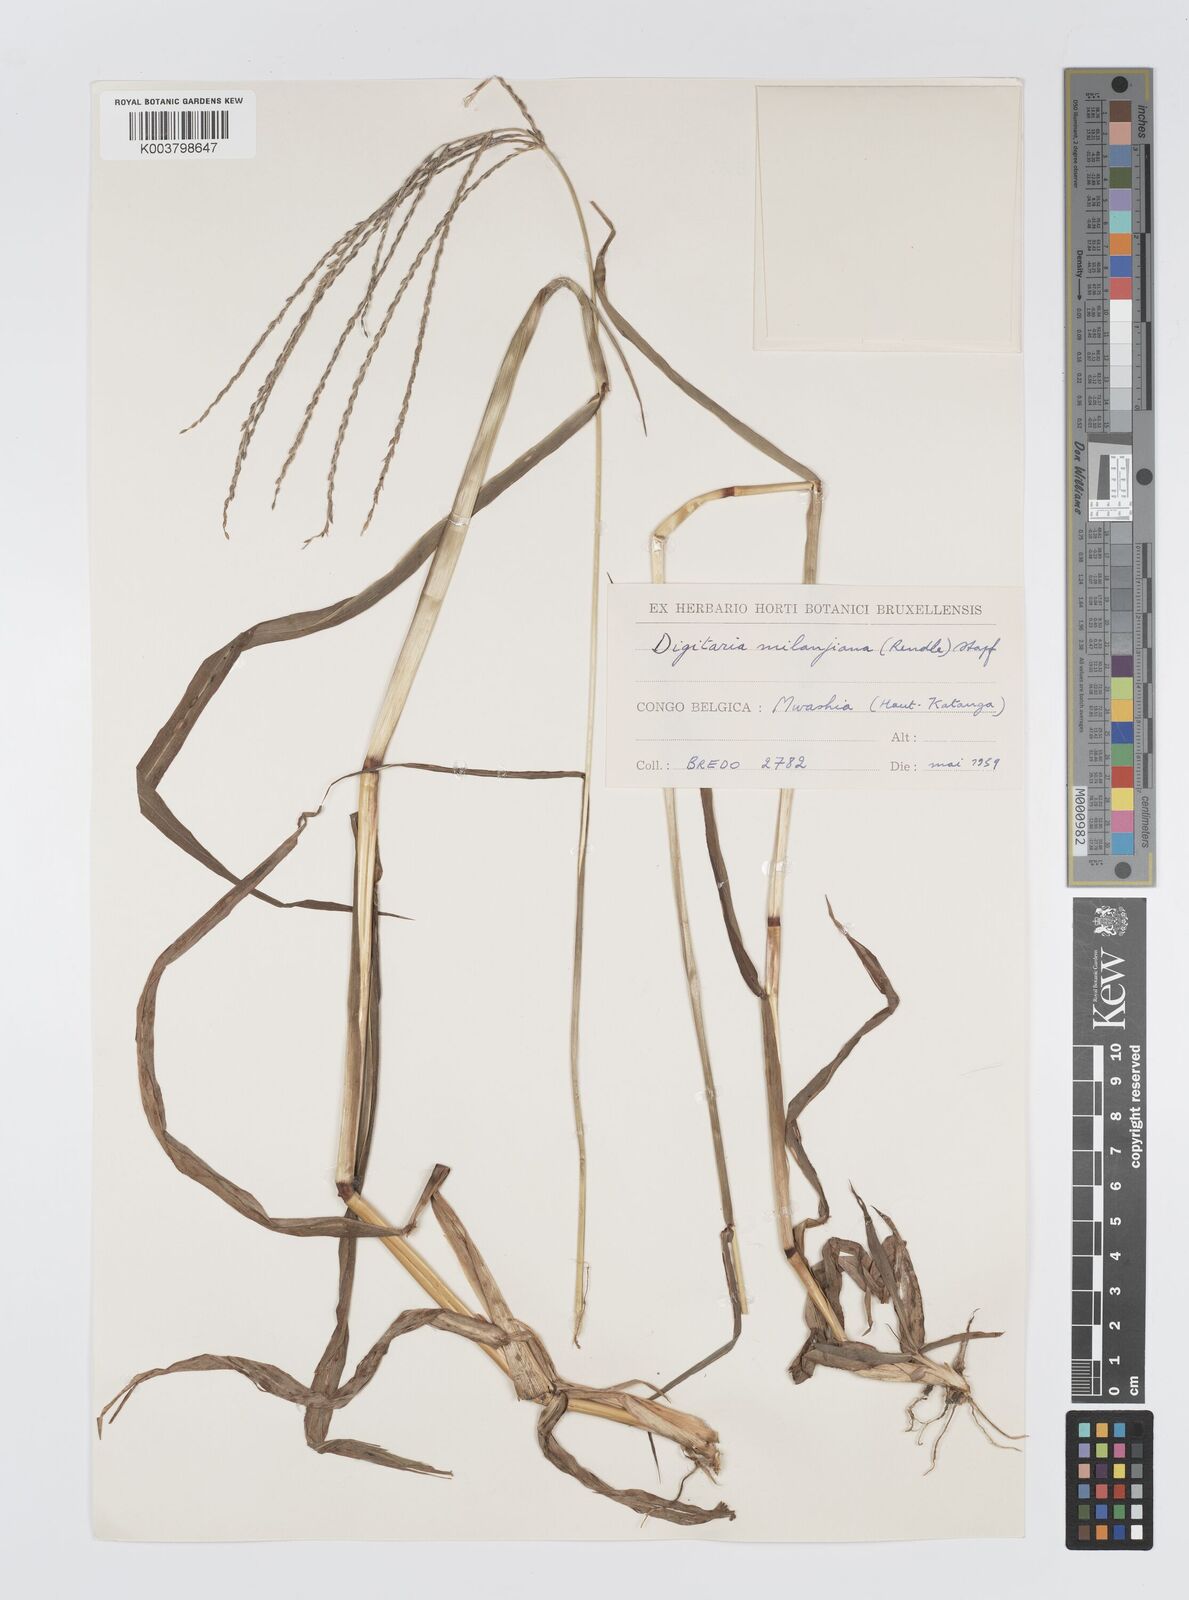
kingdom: Plantae
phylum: Tracheophyta
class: Liliopsida
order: Poales
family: Poaceae
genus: Digitaria
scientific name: Digitaria milanjiana
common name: Madagascar crabgrass
